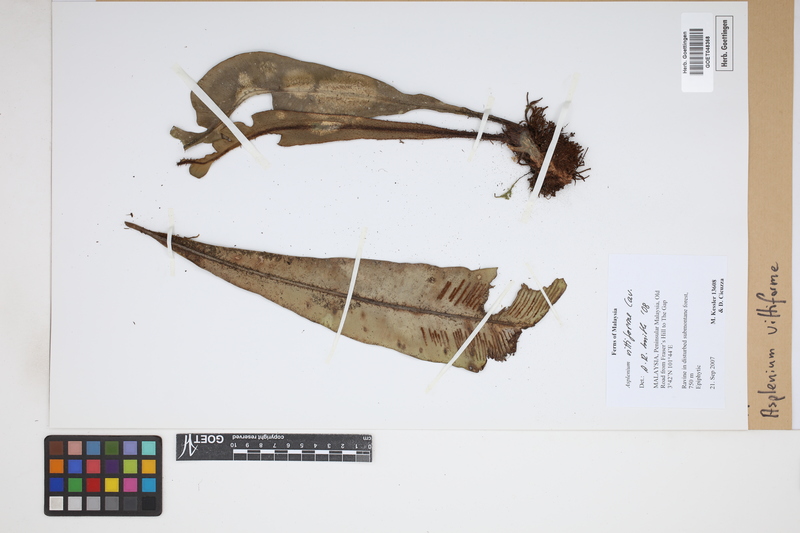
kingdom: Plantae
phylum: Tracheophyta
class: Polypodiopsida
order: Polypodiales
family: Aspleniaceae
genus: Asplenium
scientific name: Asplenium vittaeforme
